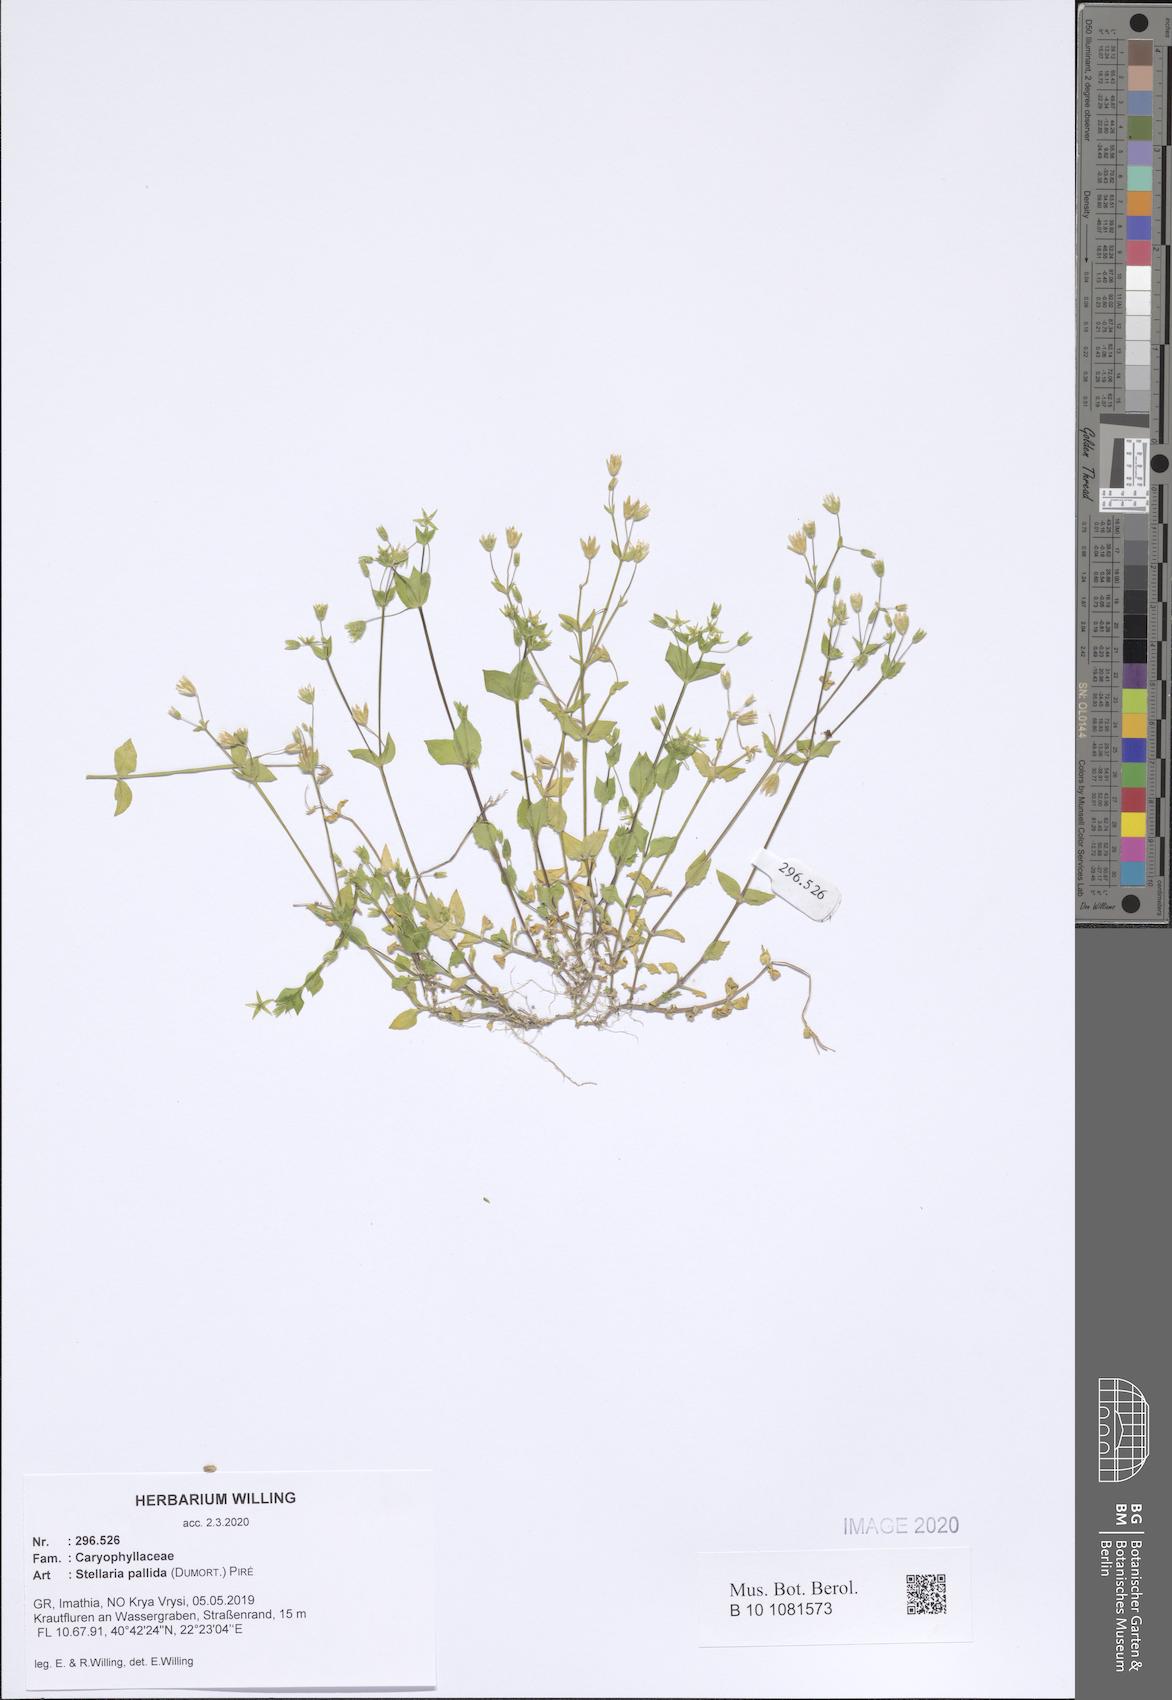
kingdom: Plantae
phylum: Tracheophyta
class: Magnoliopsida
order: Caryophyllales
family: Caryophyllaceae
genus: Stellaria
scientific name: Stellaria apetala
